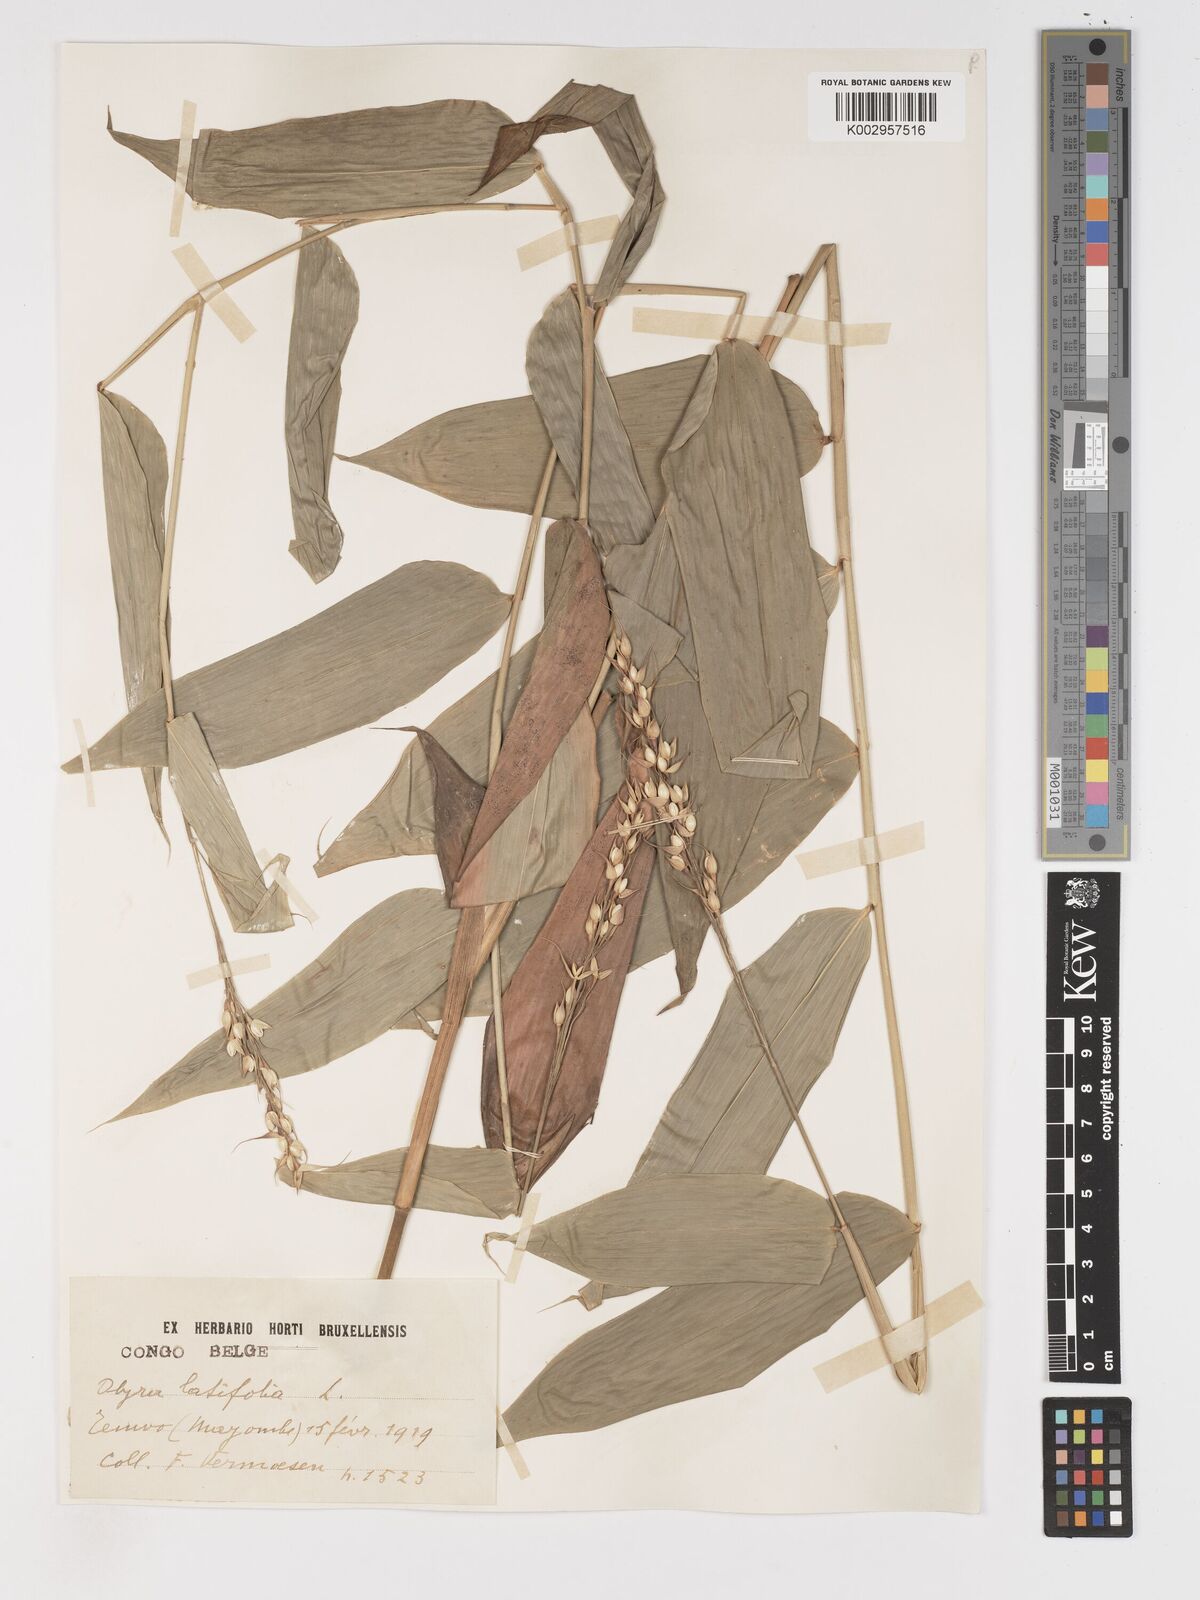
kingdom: Plantae
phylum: Tracheophyta
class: Liliopsida
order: Poales
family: Poaceae
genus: Olyra
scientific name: Olyra latifolia
